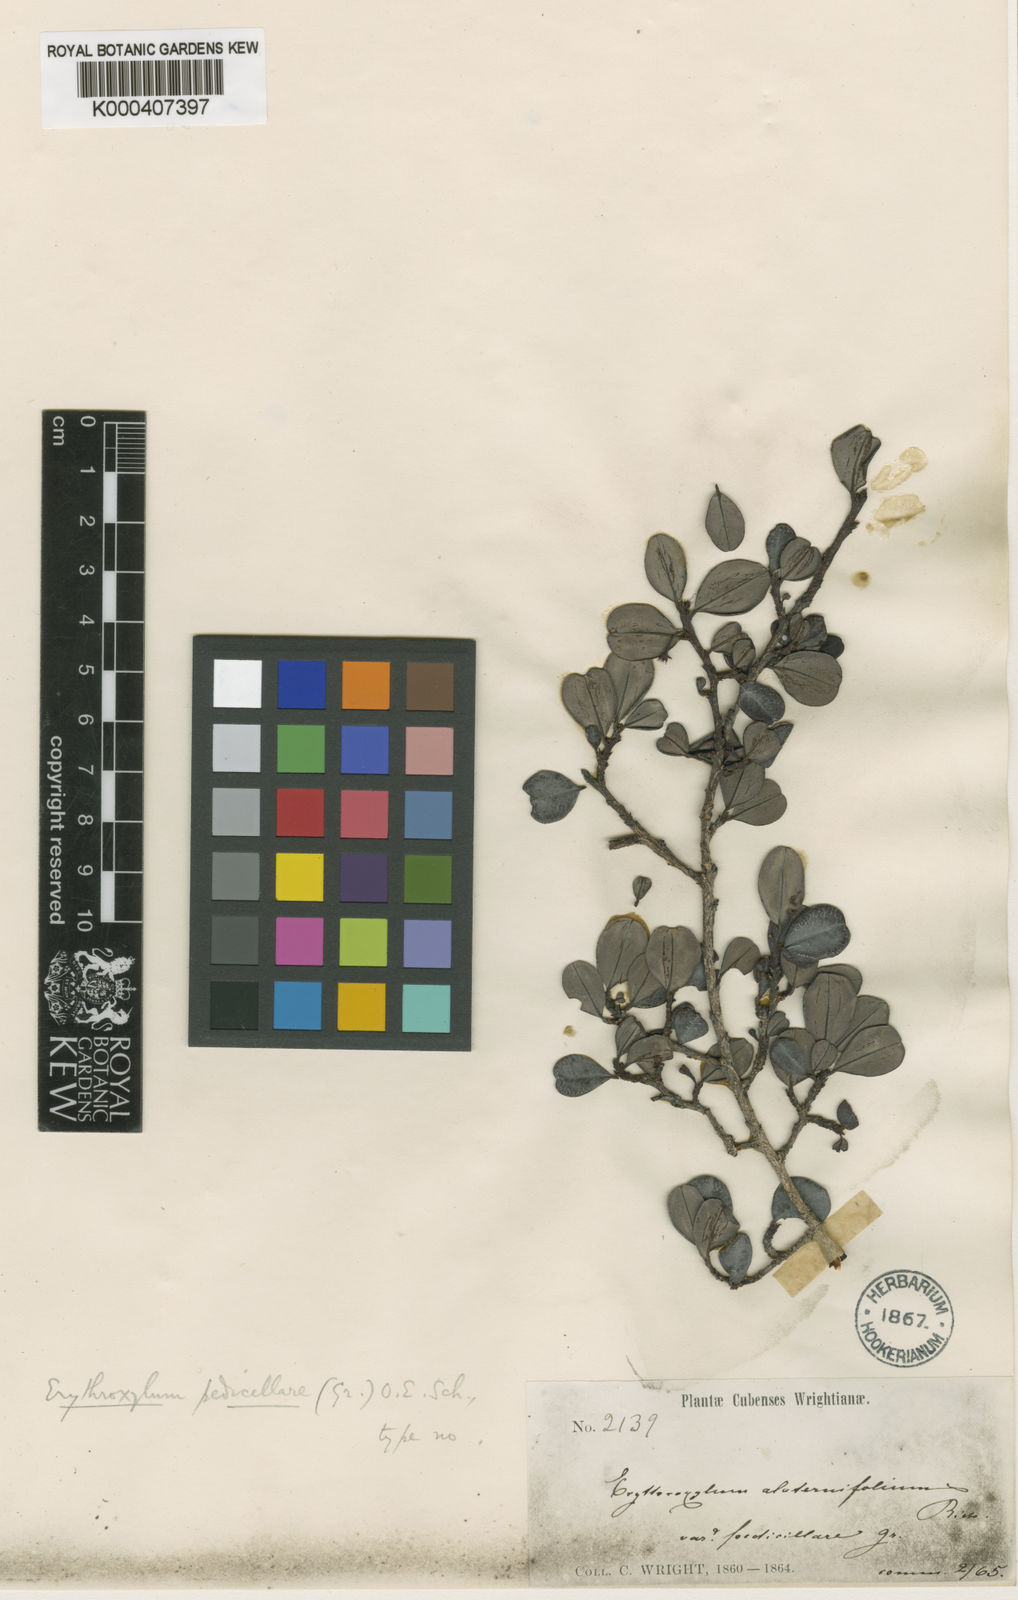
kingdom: Plantae
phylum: Tracheophyta
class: Magnoliopsida
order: Malpighiales
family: Erythroxylaceae
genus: Erythroxylum
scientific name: Erythroxylum pedicellare
